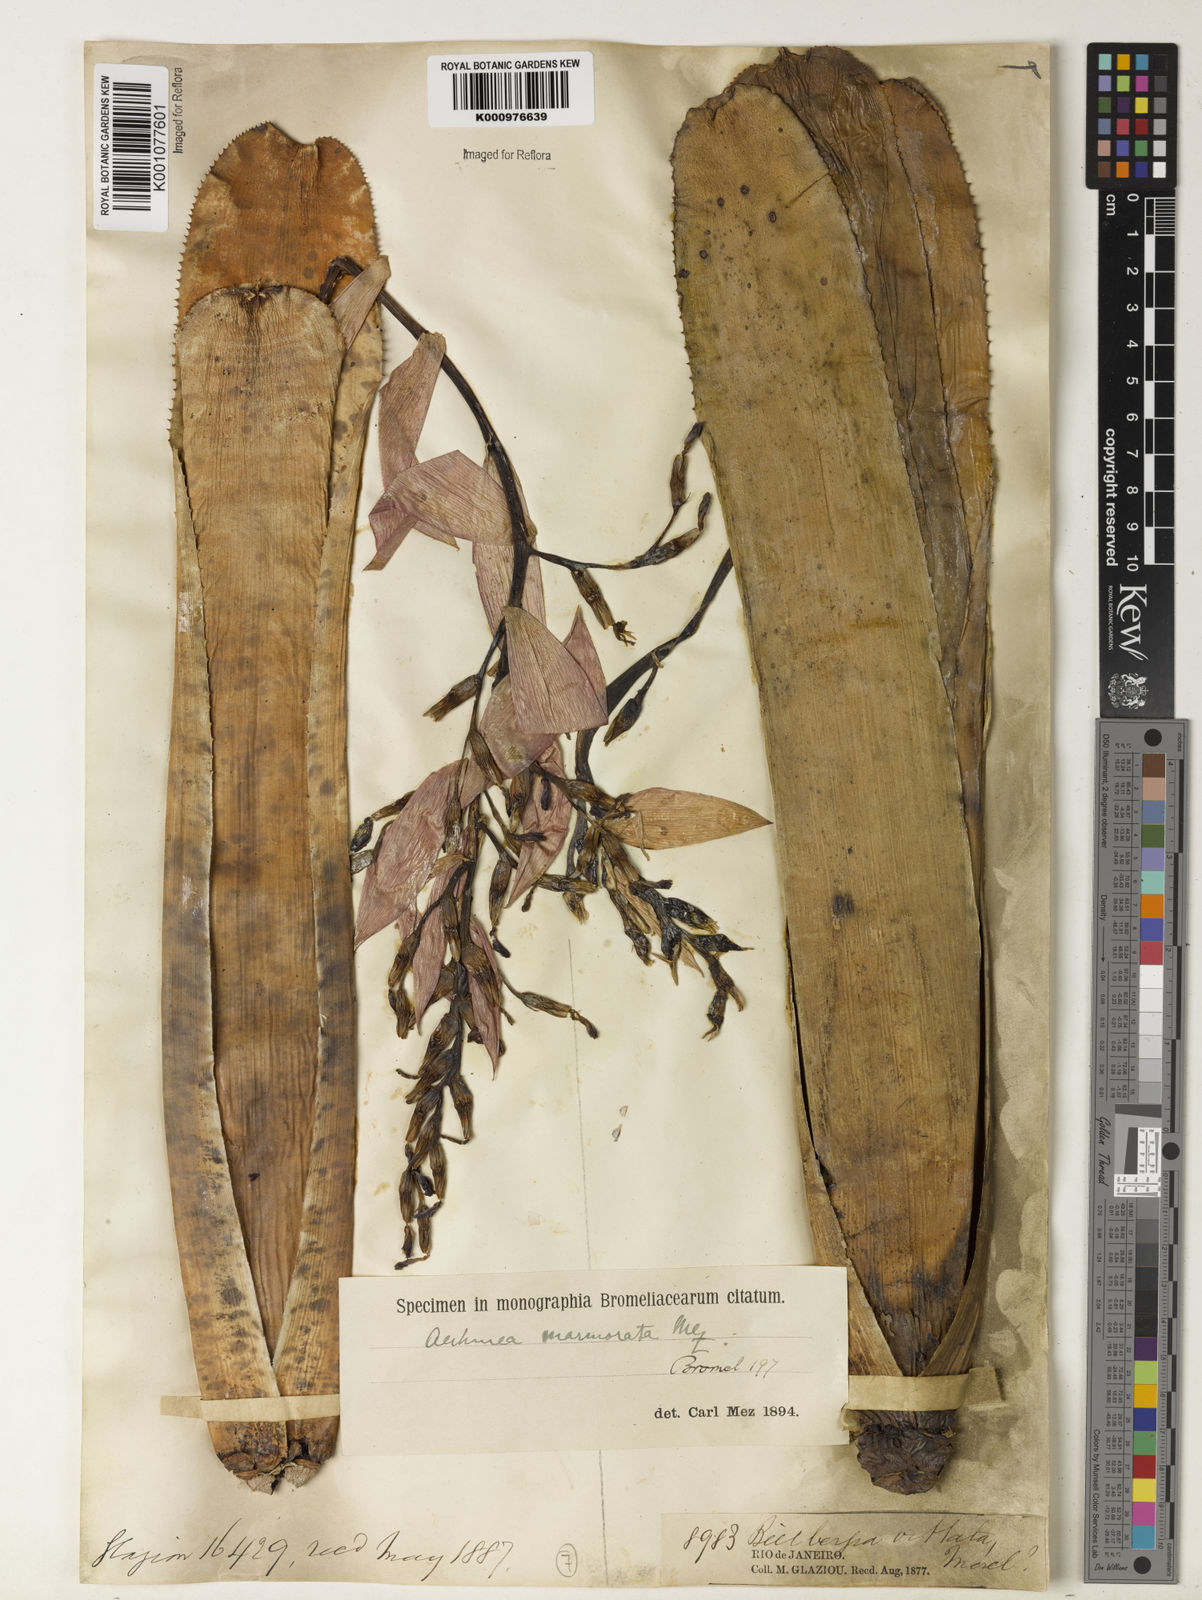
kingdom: Plantae
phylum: Tracheophyta
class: Liliopsida
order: Poales
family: Bromeliaceae
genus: Quesnelia
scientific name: Quesnelia marmorata
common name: Grecian urnplant
